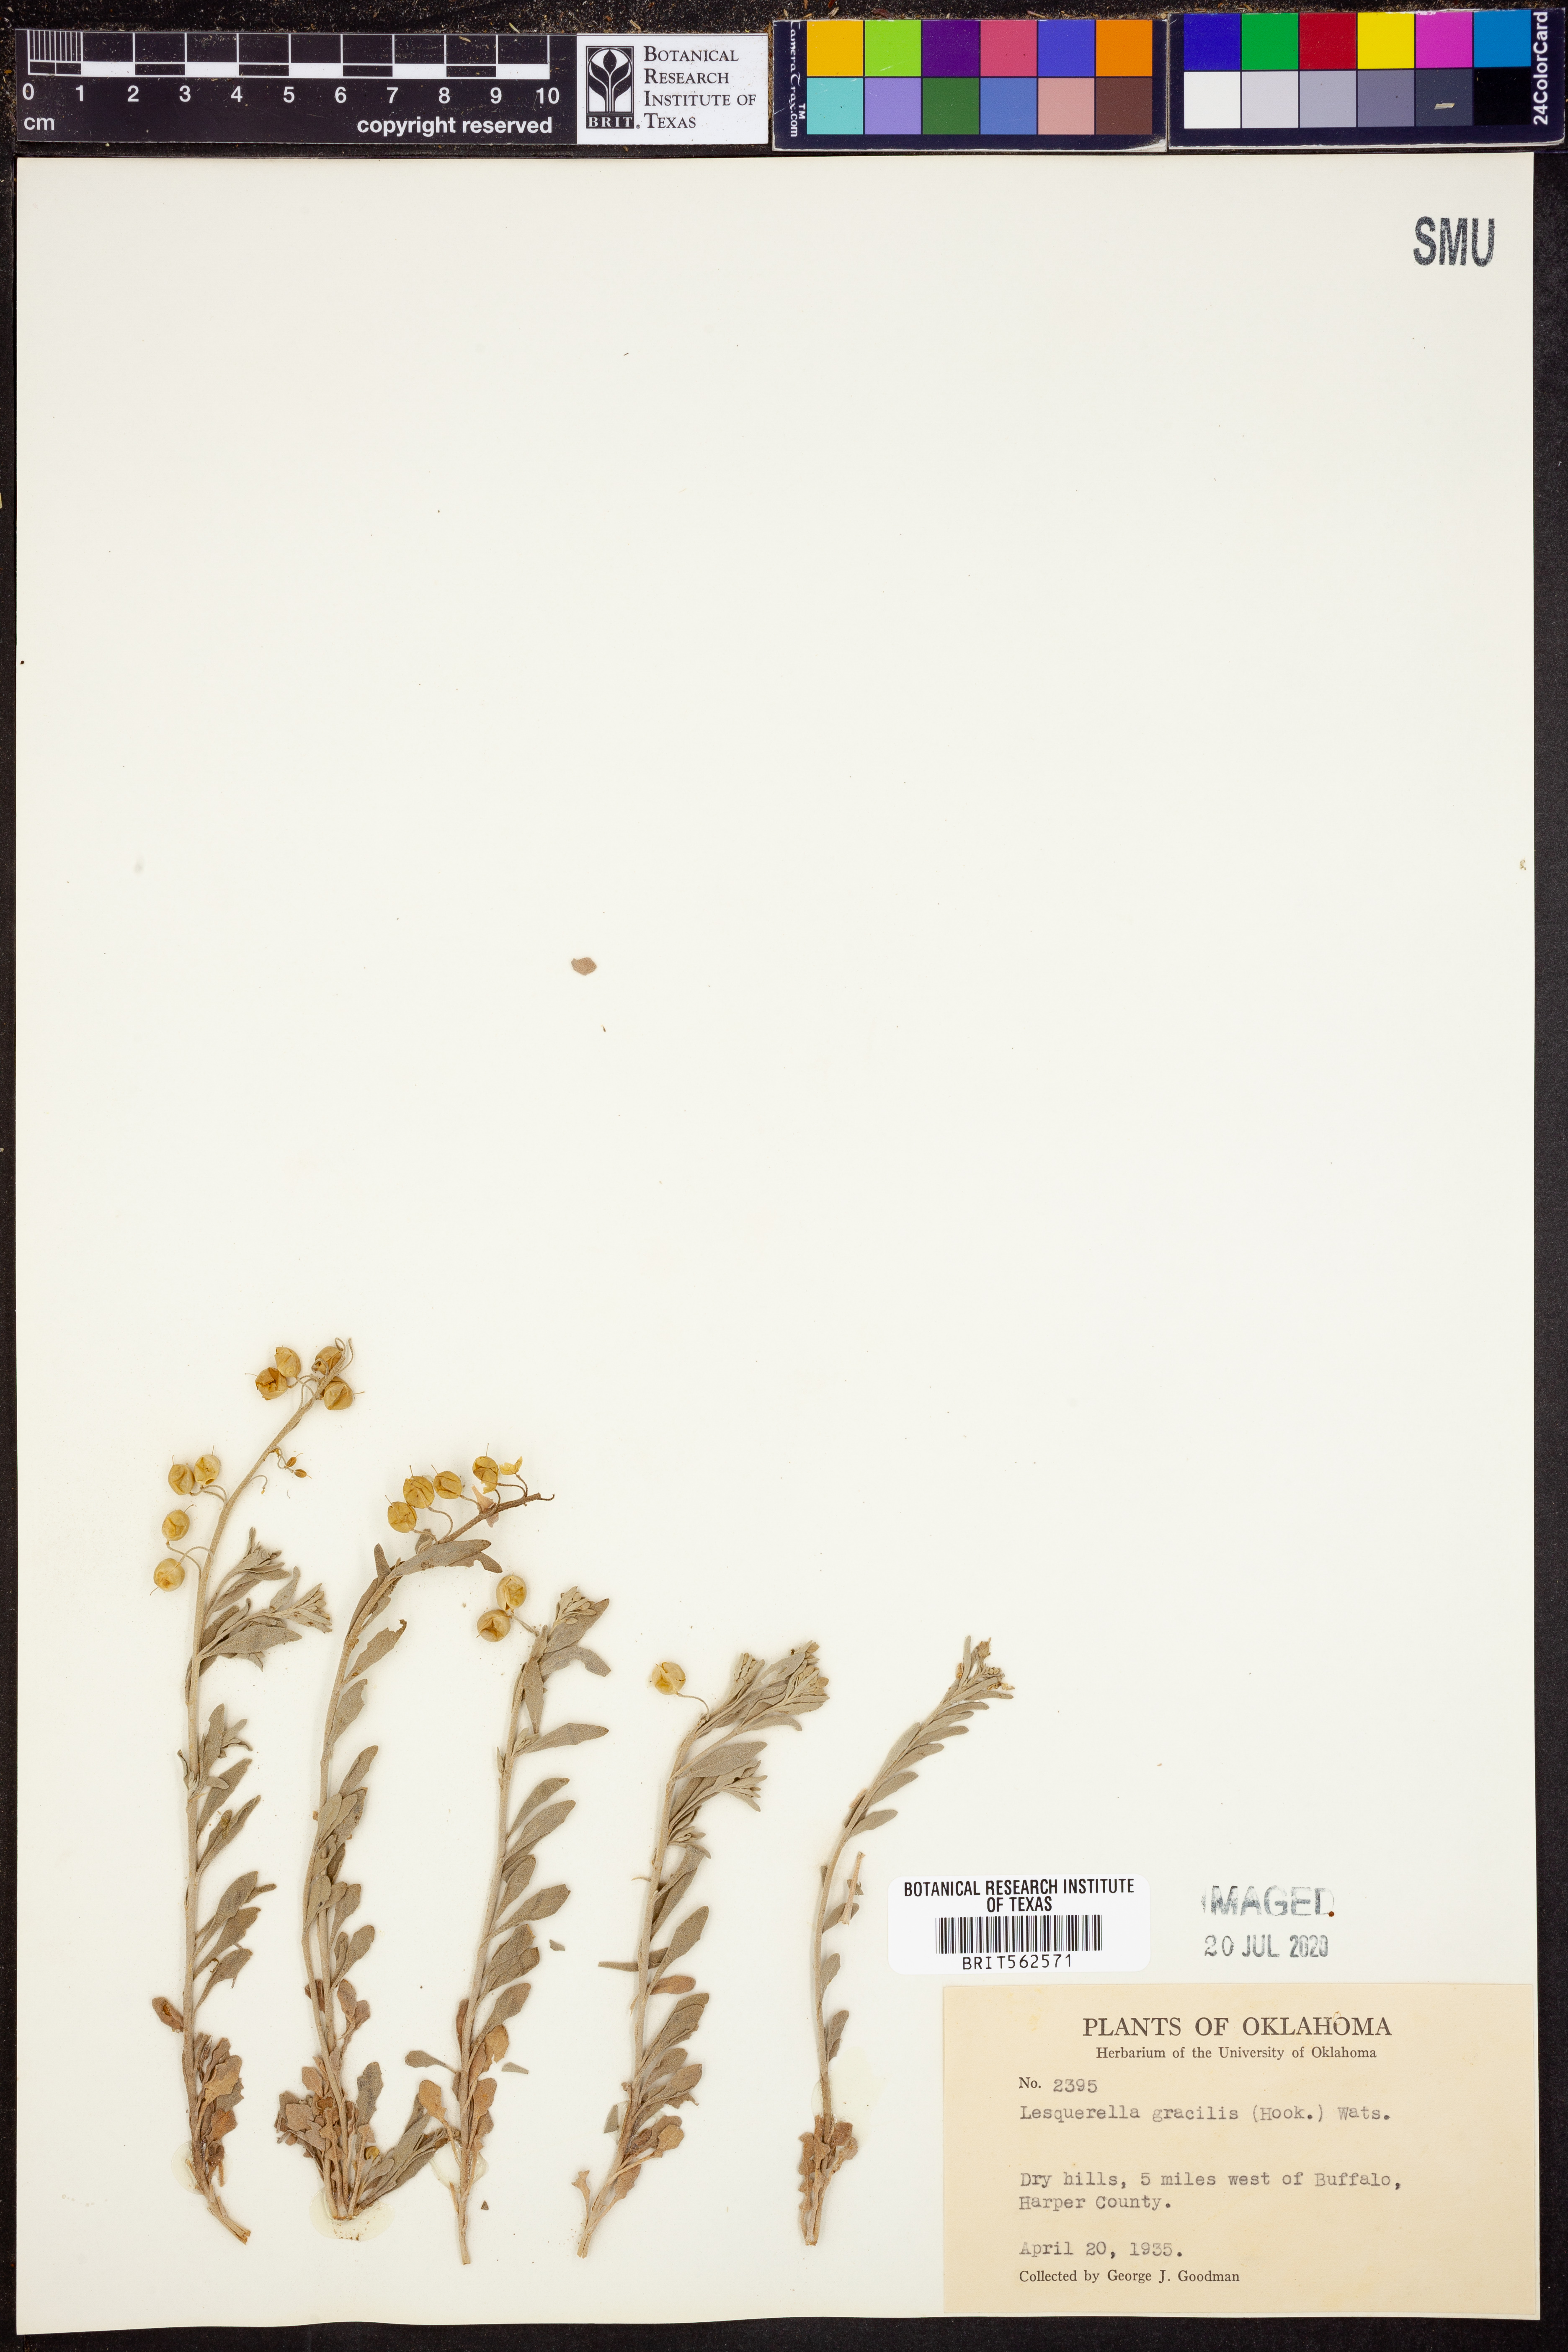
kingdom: Plantae
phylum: Tracheophyta
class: Magnoliopsida
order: Brassicales
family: Brassicaceae
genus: Physaria
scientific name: Physaria gracilis
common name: Spreading bladderpod
